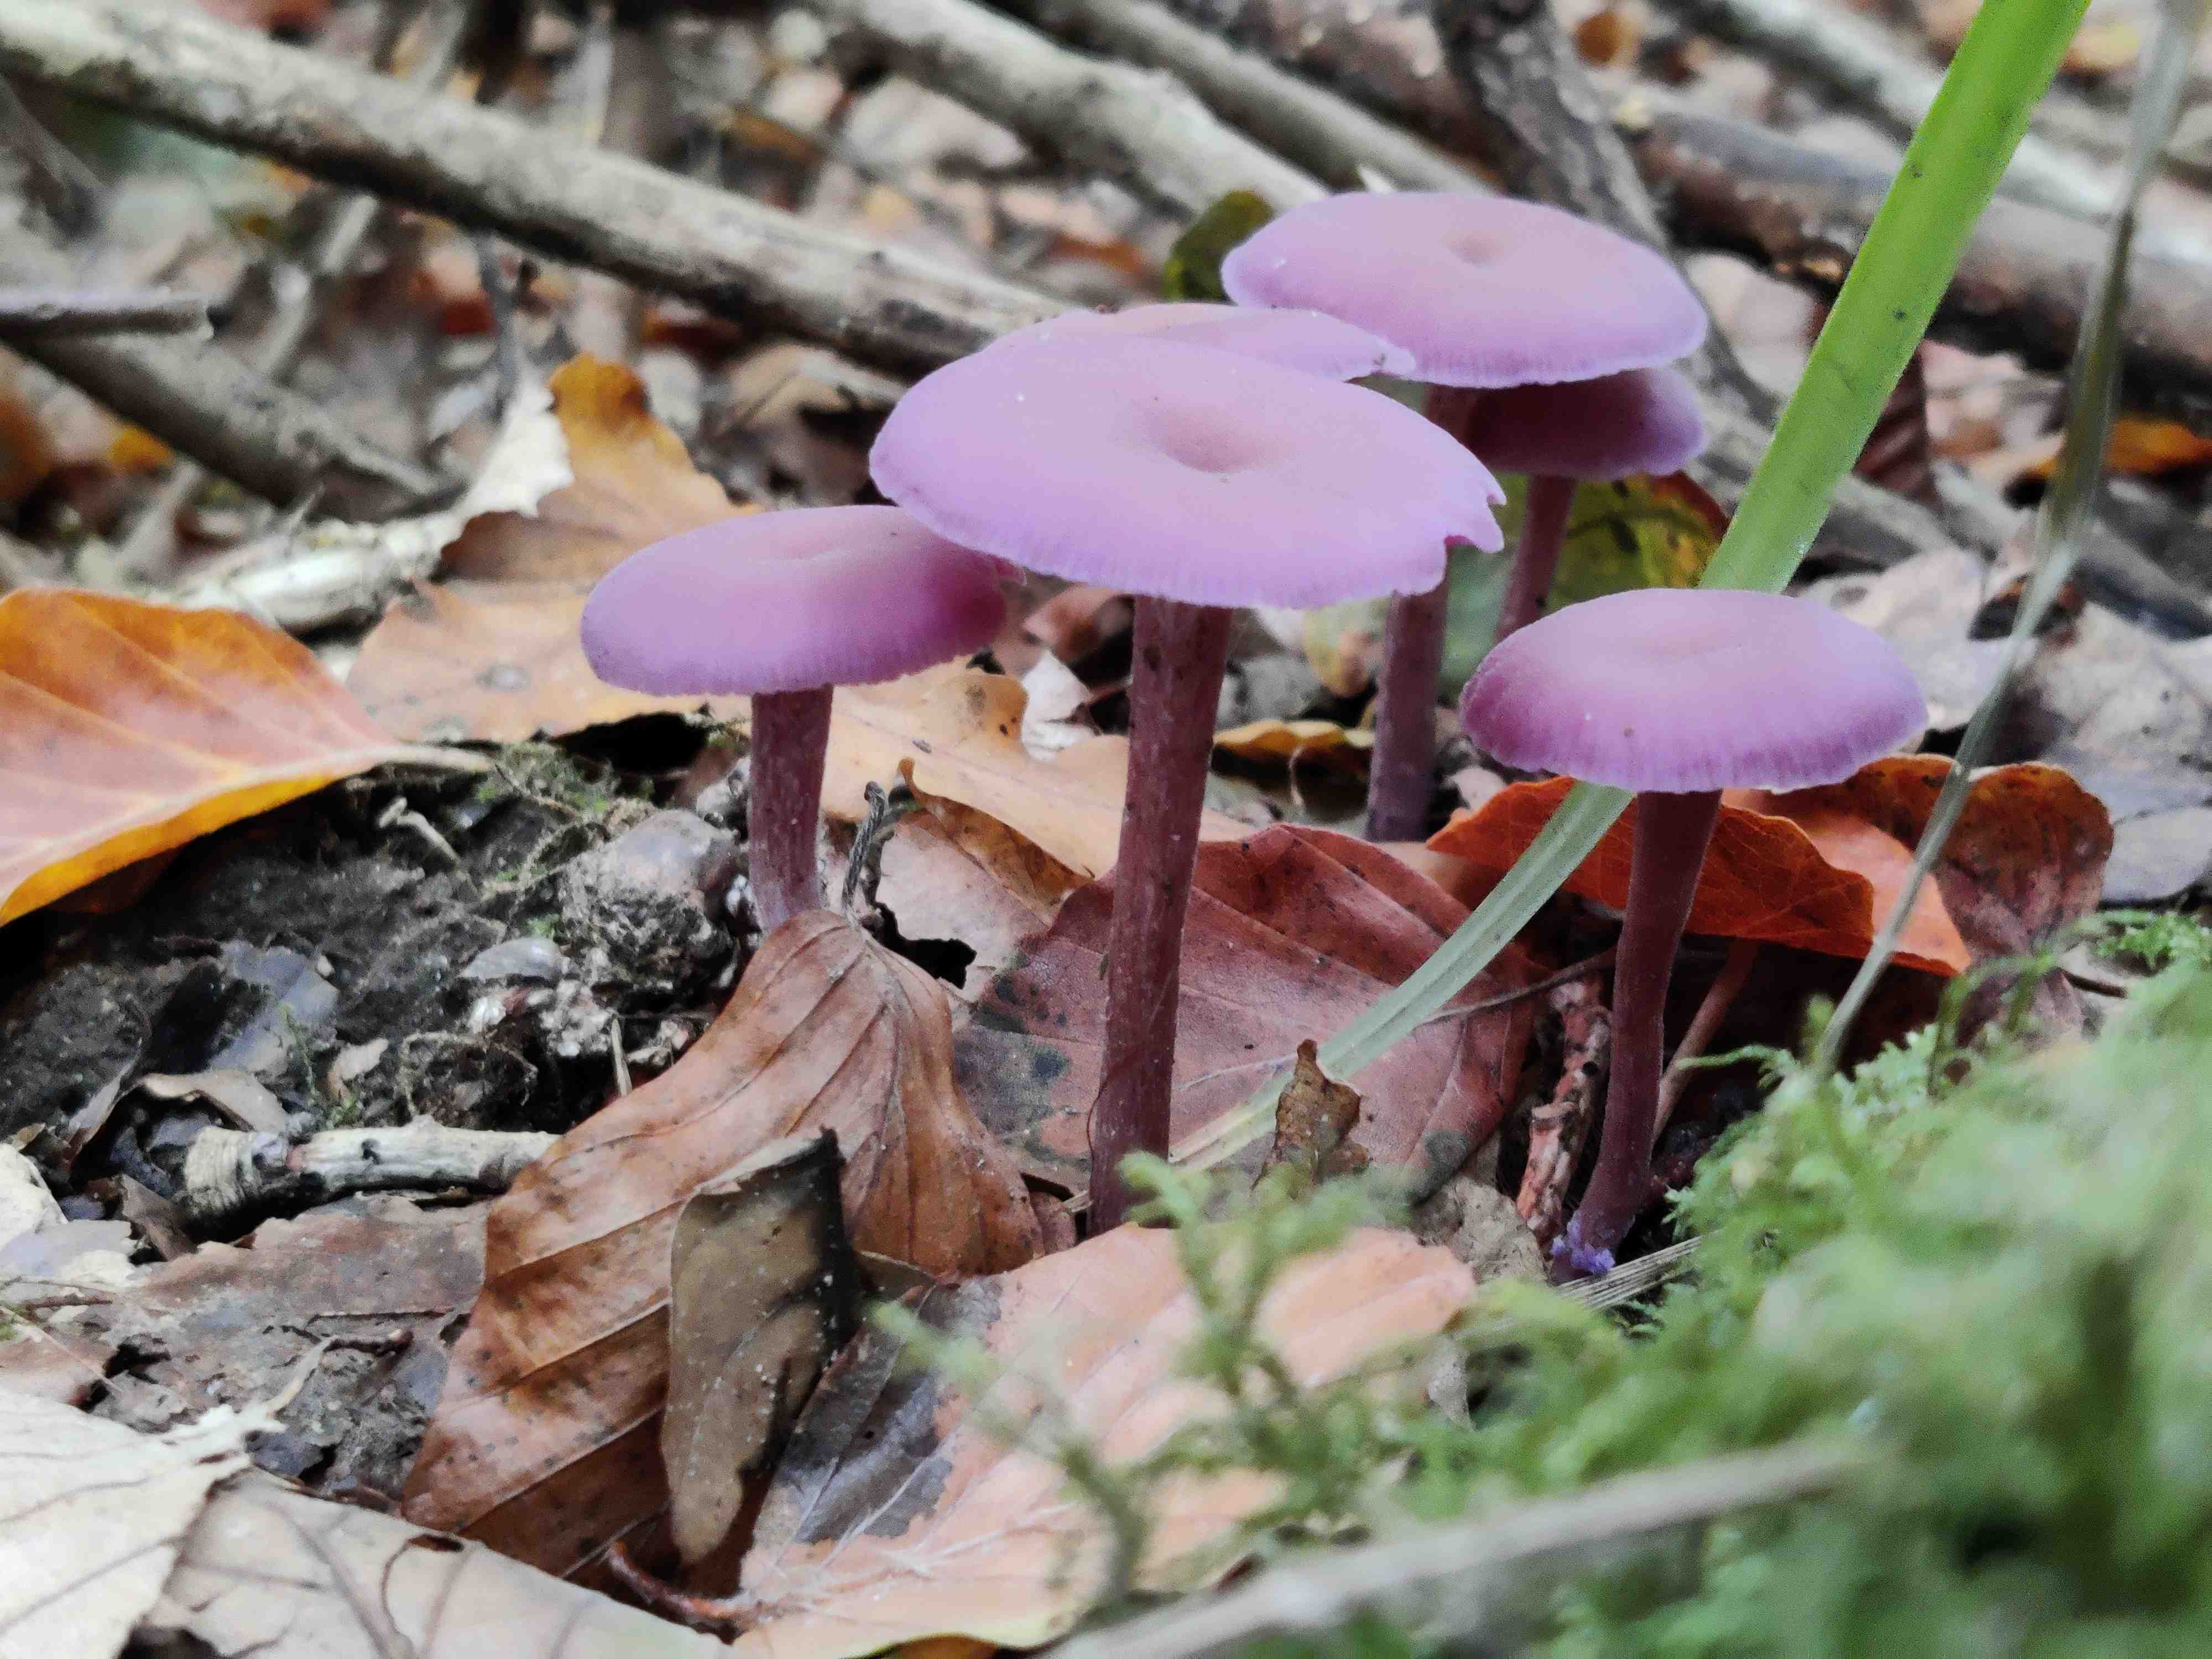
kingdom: Fungi
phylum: Basidiomycota
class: Agaricomycetes
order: Agaricales
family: Hydnangiaceae
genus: Laccaria
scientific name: Laccaria amethystina
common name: violet ametysthat
